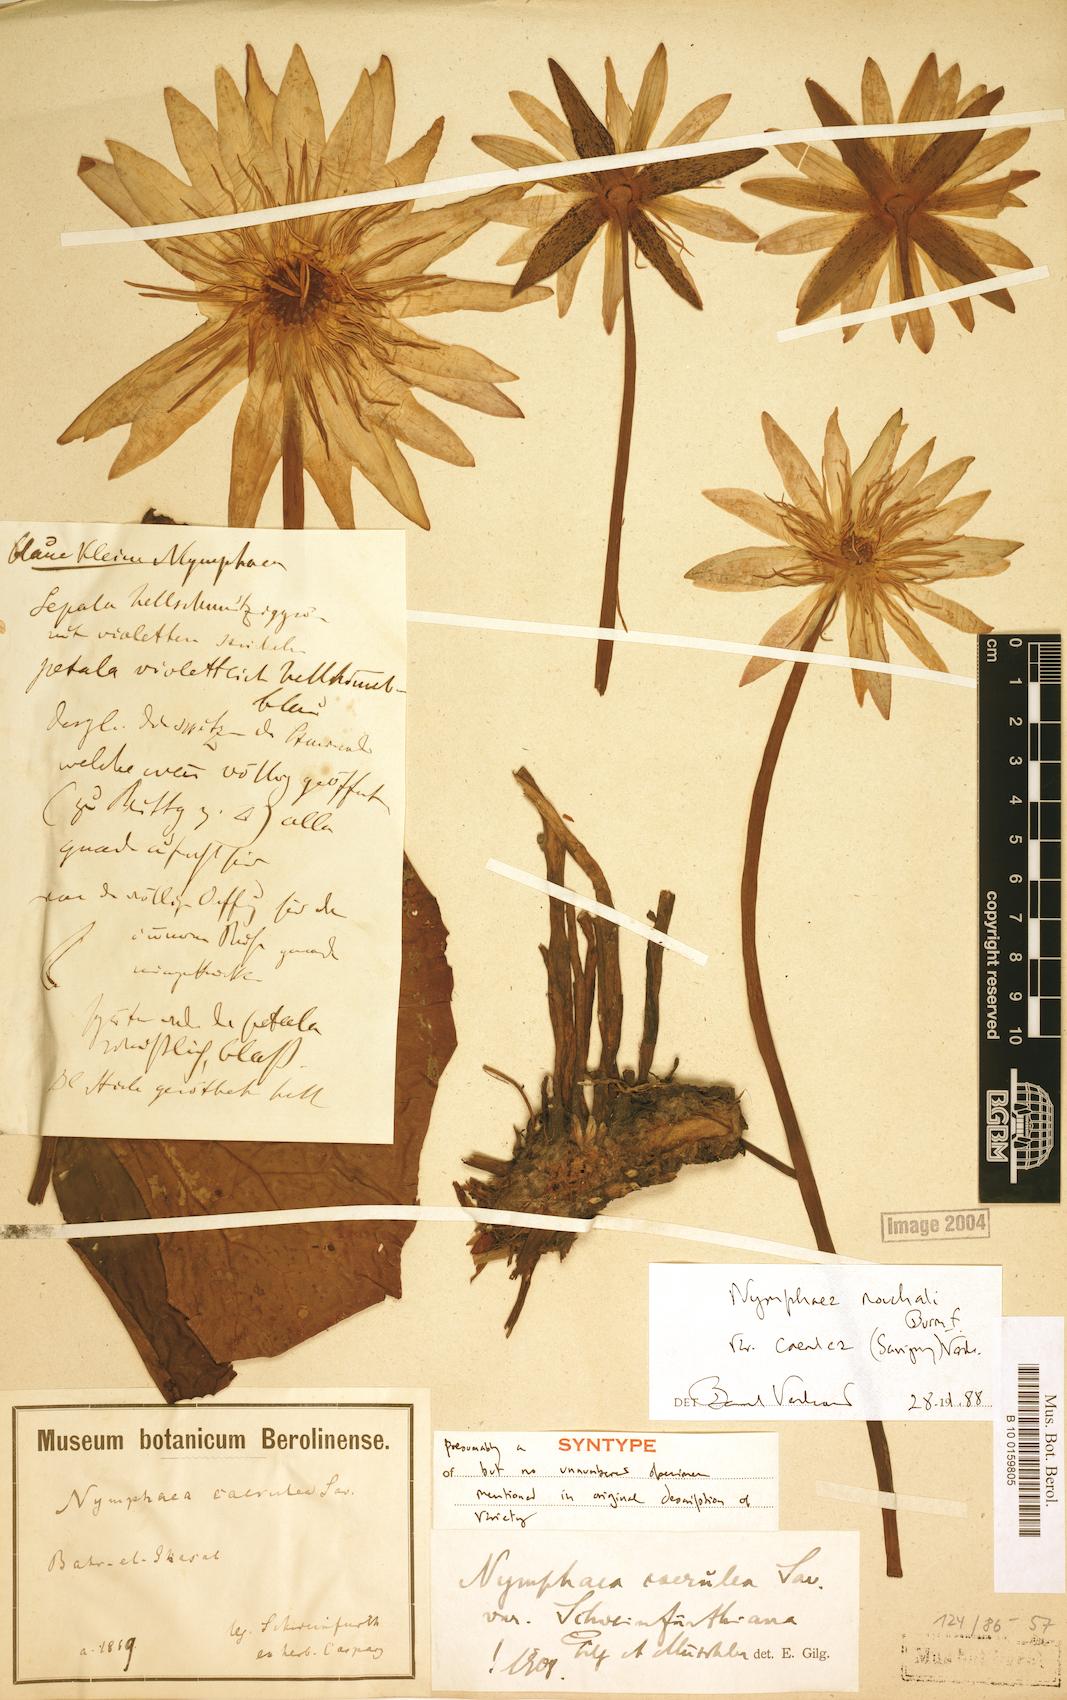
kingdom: Plantae
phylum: Tracheophyta
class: Magnoliopsida
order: Nymphaeales
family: Nymphaeaceae
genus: Nymphaea
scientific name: Nymphaea nouchali
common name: Blue lotus
